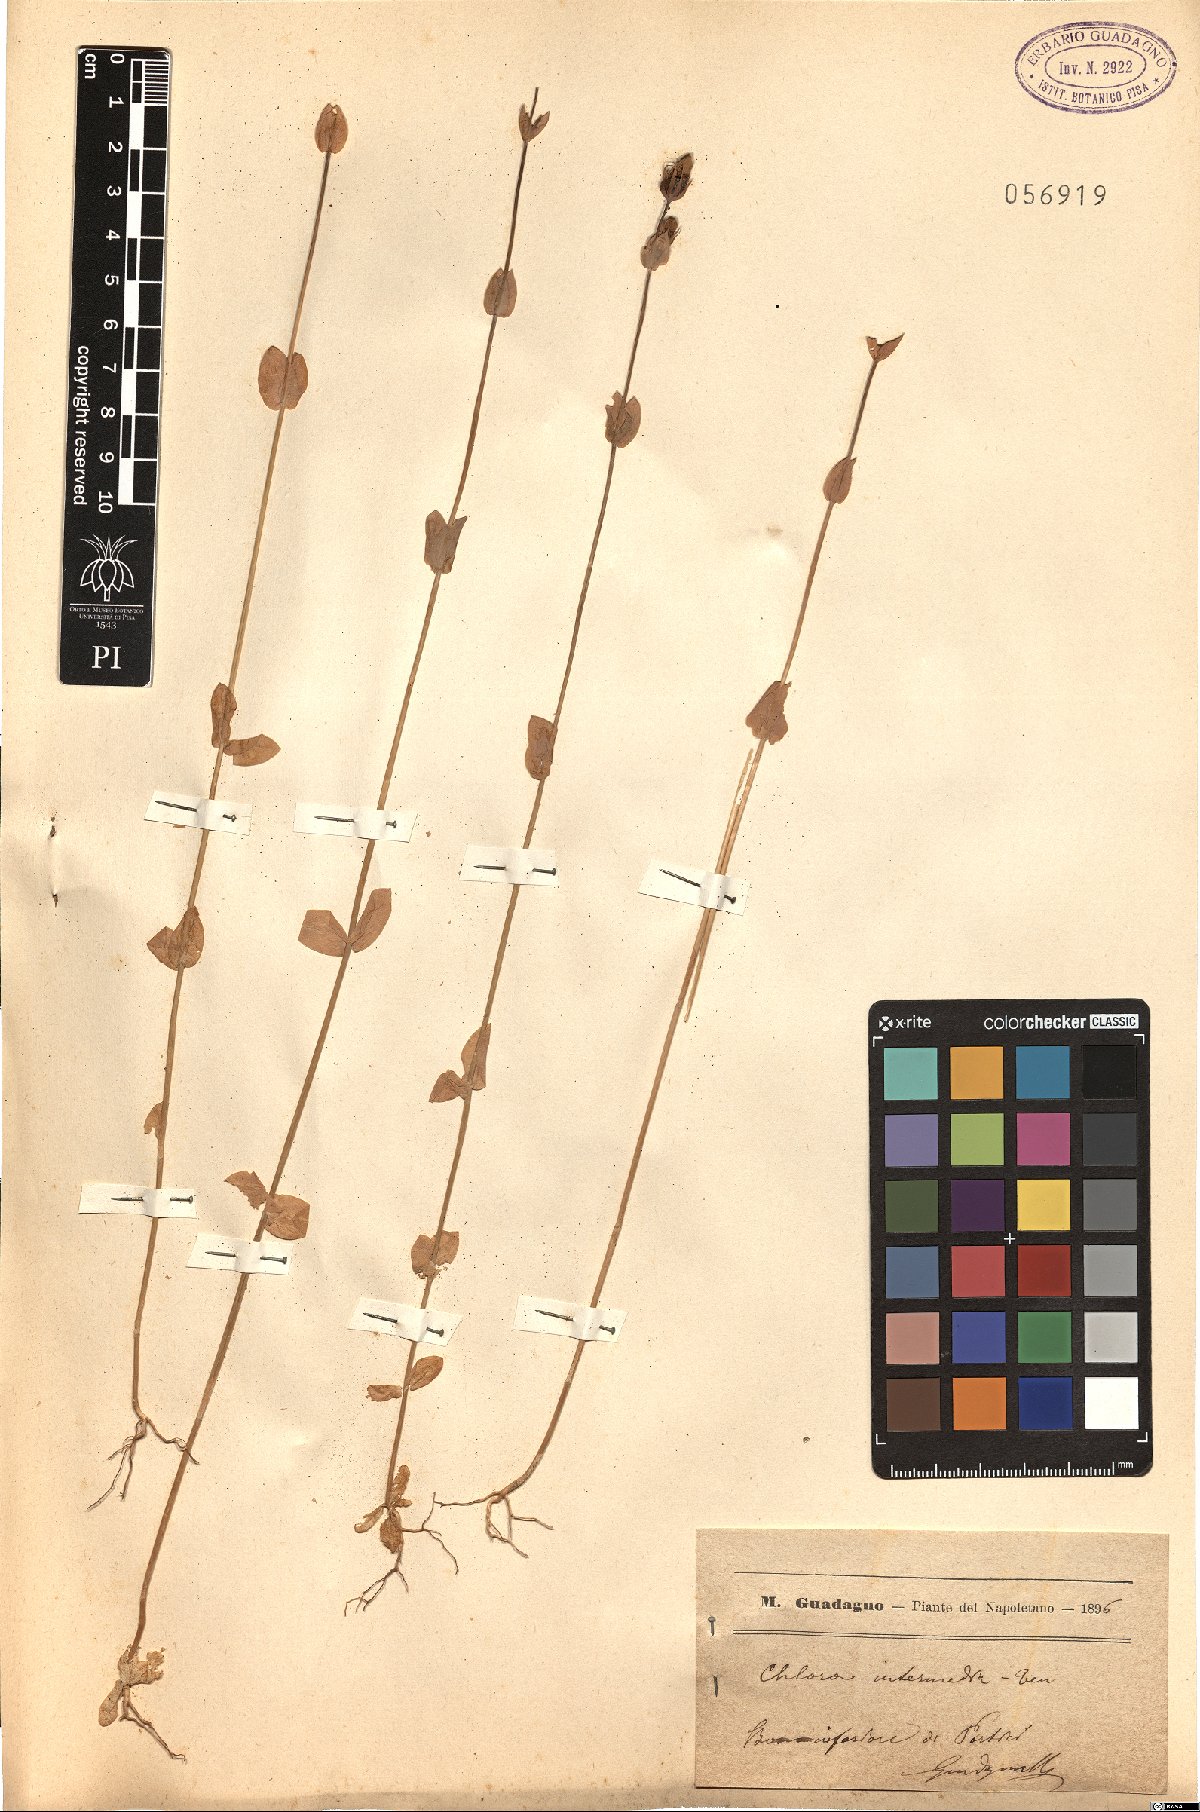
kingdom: Plantae
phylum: Tracheophyta
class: Magnoliopsida
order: Gentianales
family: Gentianaceae
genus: Blackstonia
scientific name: Blackstonia perfoliata
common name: Yellow-wort
